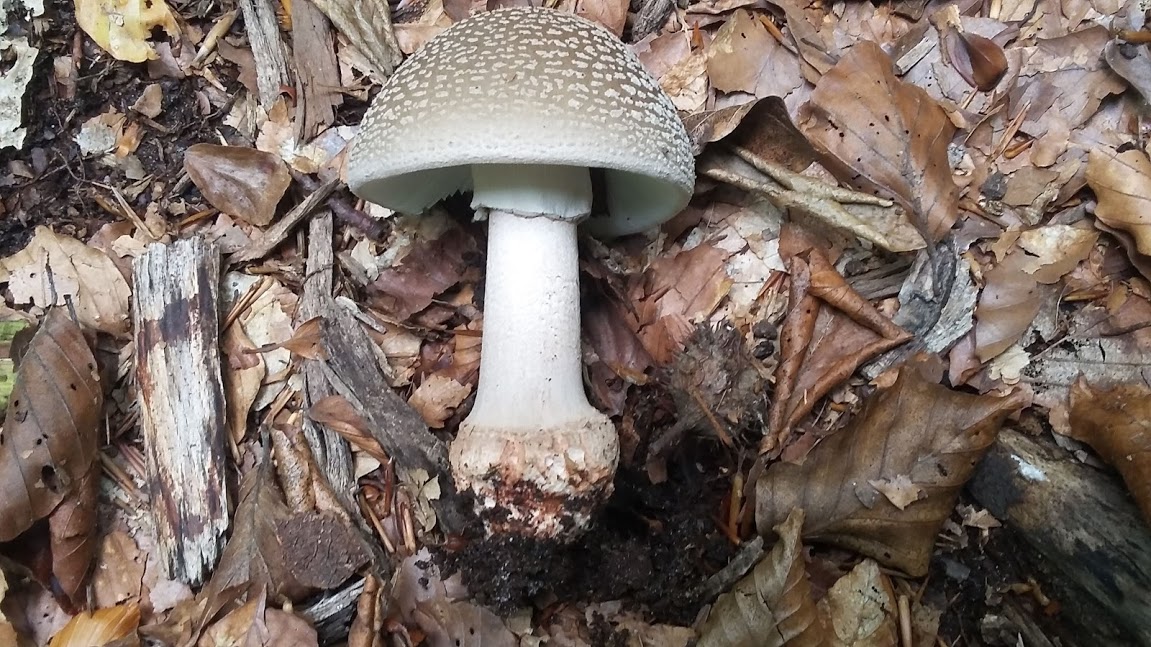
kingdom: Fungi
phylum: Basidiomycota
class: Agaricomycetes
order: Agaricales
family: Amanitaceae
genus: Amanita
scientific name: Amanita rubescens
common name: rødmende fluesvamp
